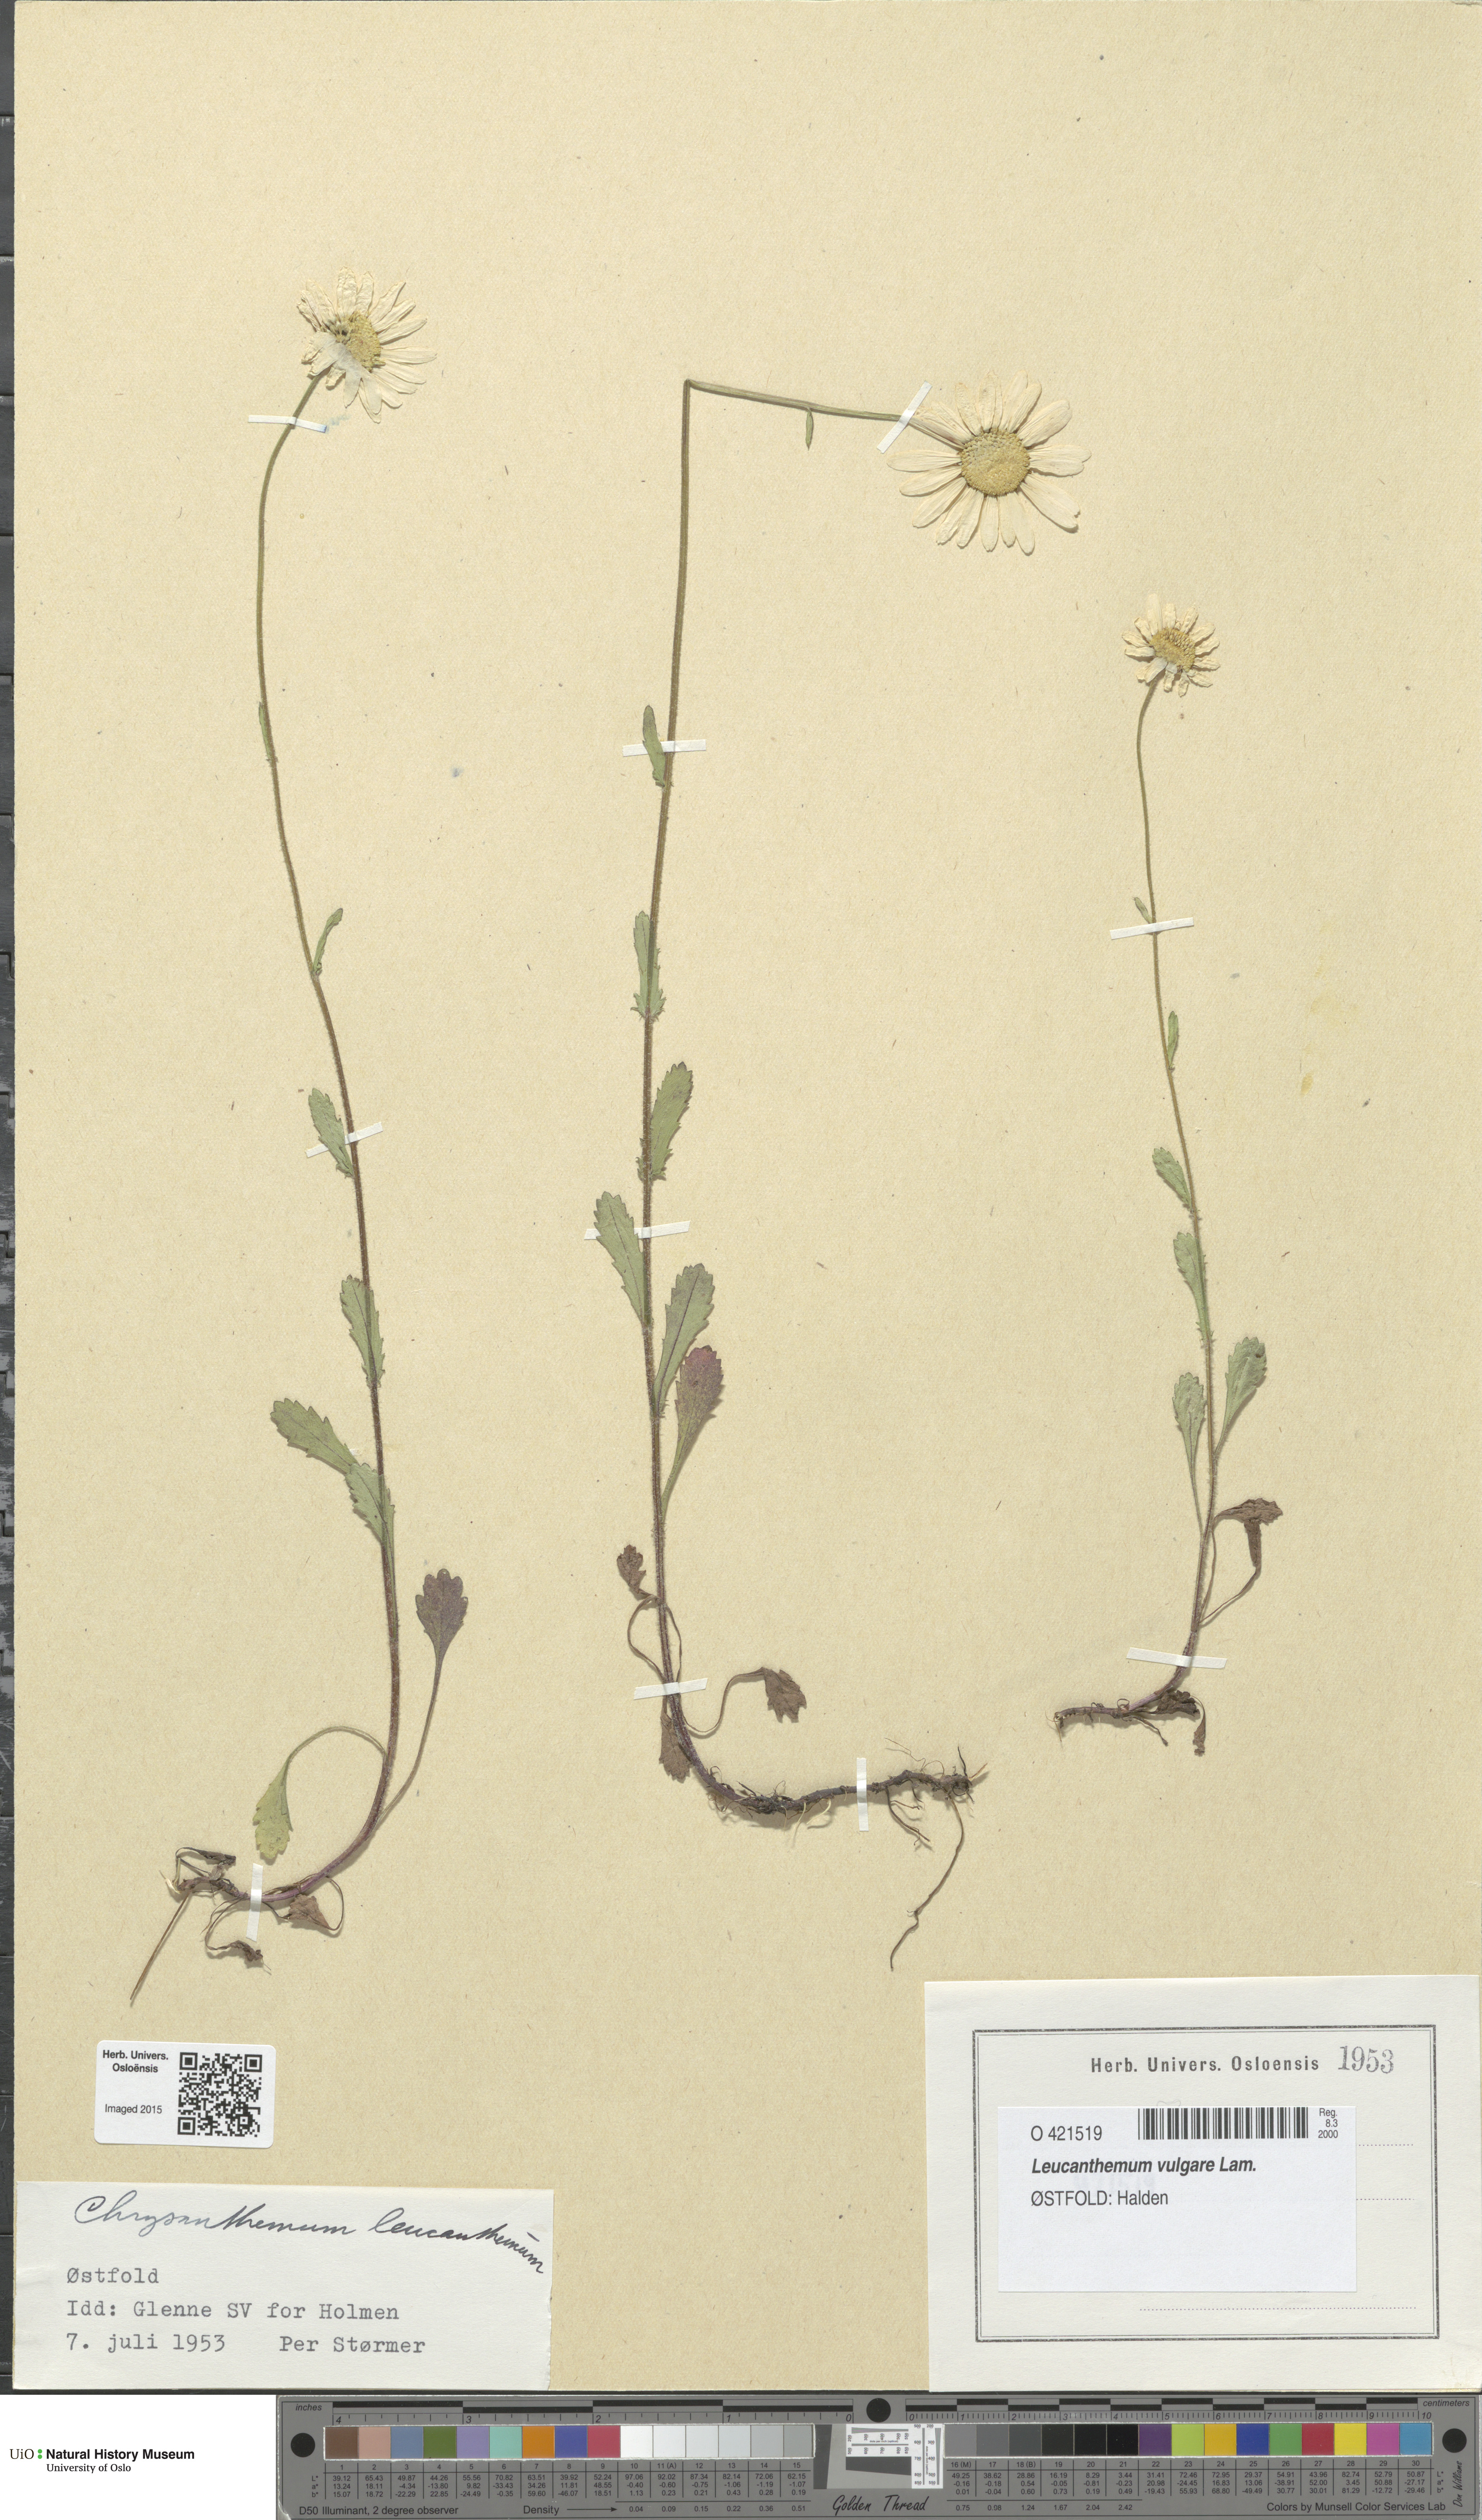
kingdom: Plantae
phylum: Tracheophyta
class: Magnoliopsida
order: Asterales
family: Asteraceae
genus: Leucanthemum
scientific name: Leucanthemum vulgare
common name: Oxeye daisy
